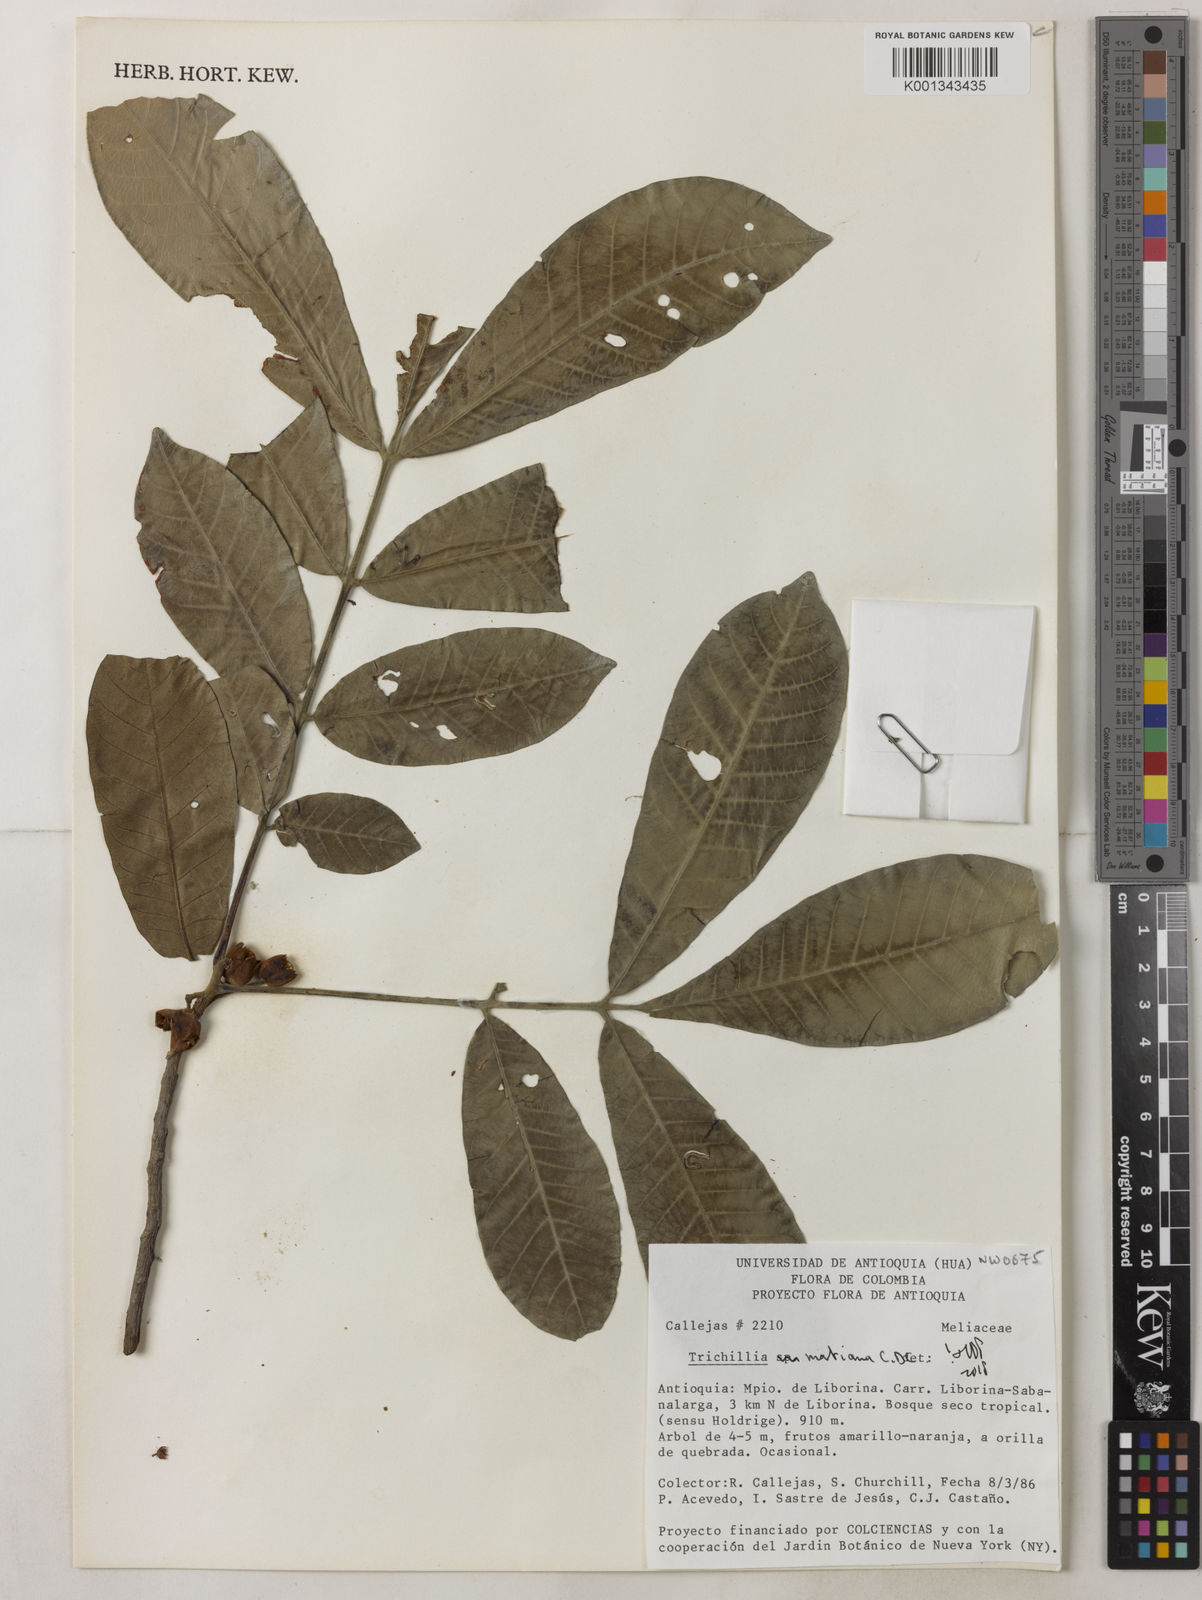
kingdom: Plantae
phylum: Tracheophyta
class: Magnoliopsida
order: Sapindales
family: Meliaceae
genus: Trichilia
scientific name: Trichilia martiana
